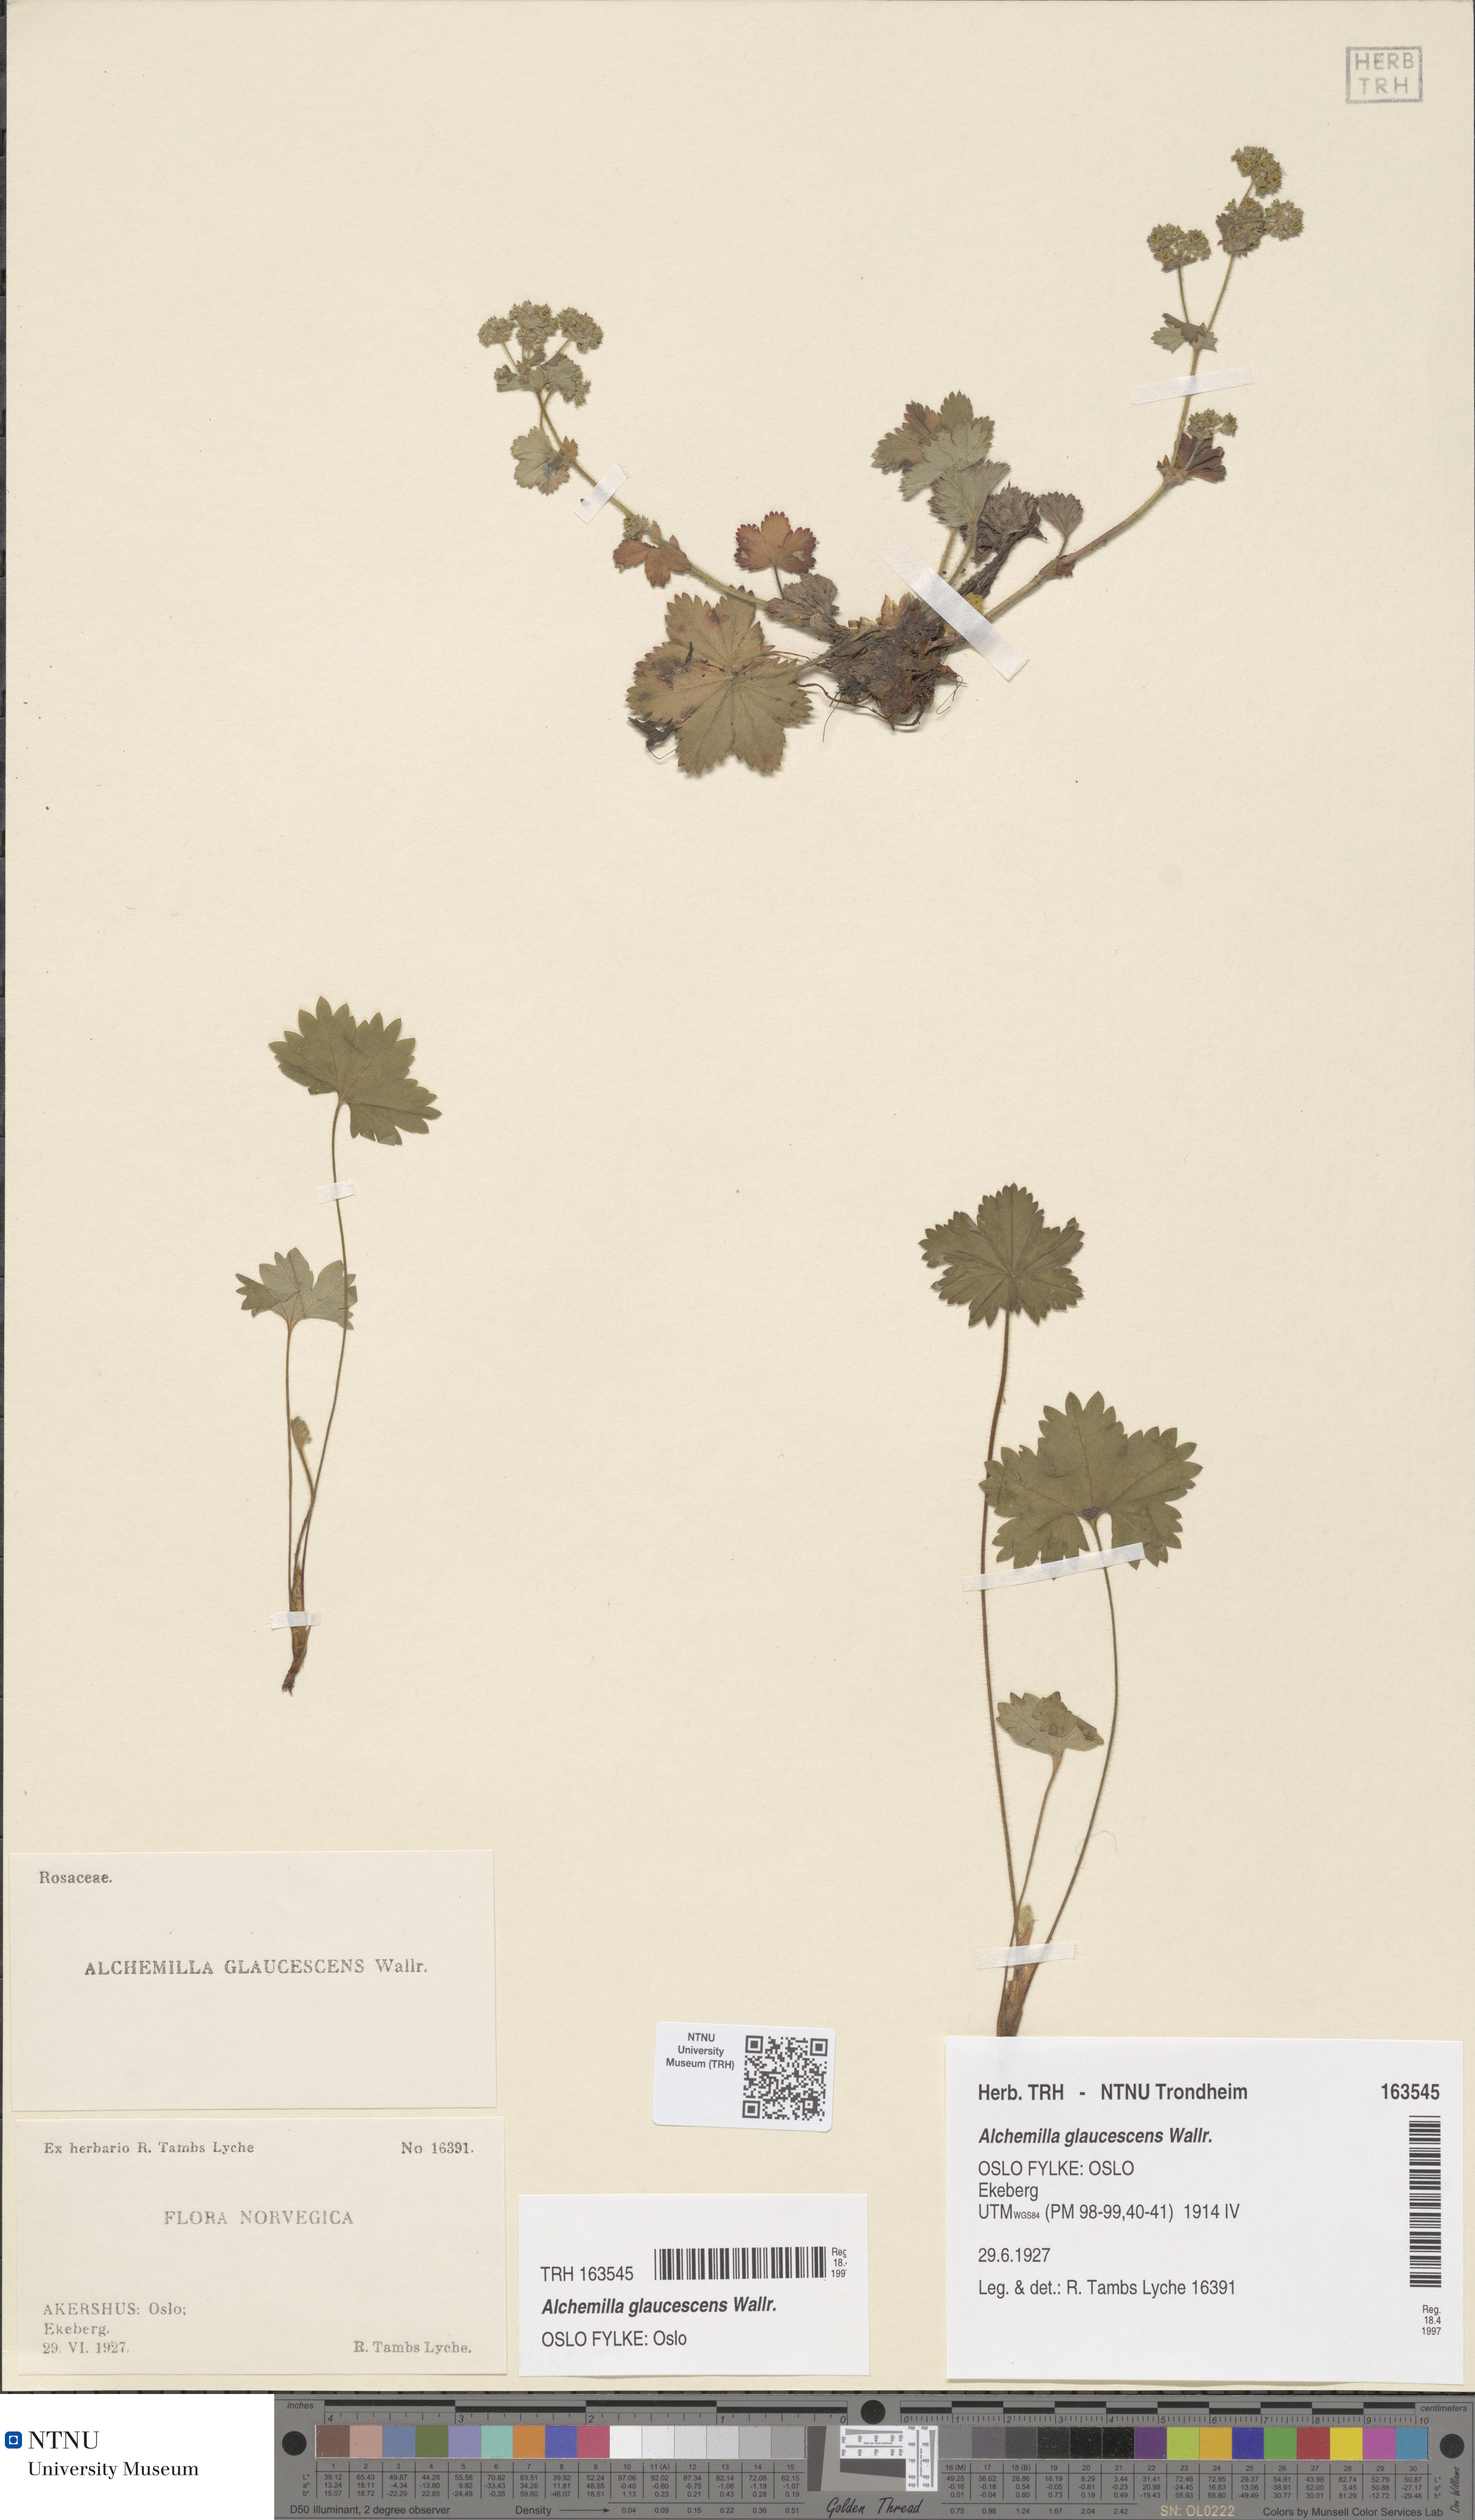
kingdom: Plantae
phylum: Tracheophyta
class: Magnoliopsida
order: Rosales
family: Rosaceae
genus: Alchemilla
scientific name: Alchemilla glaucescens
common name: Silky lady's mantle
